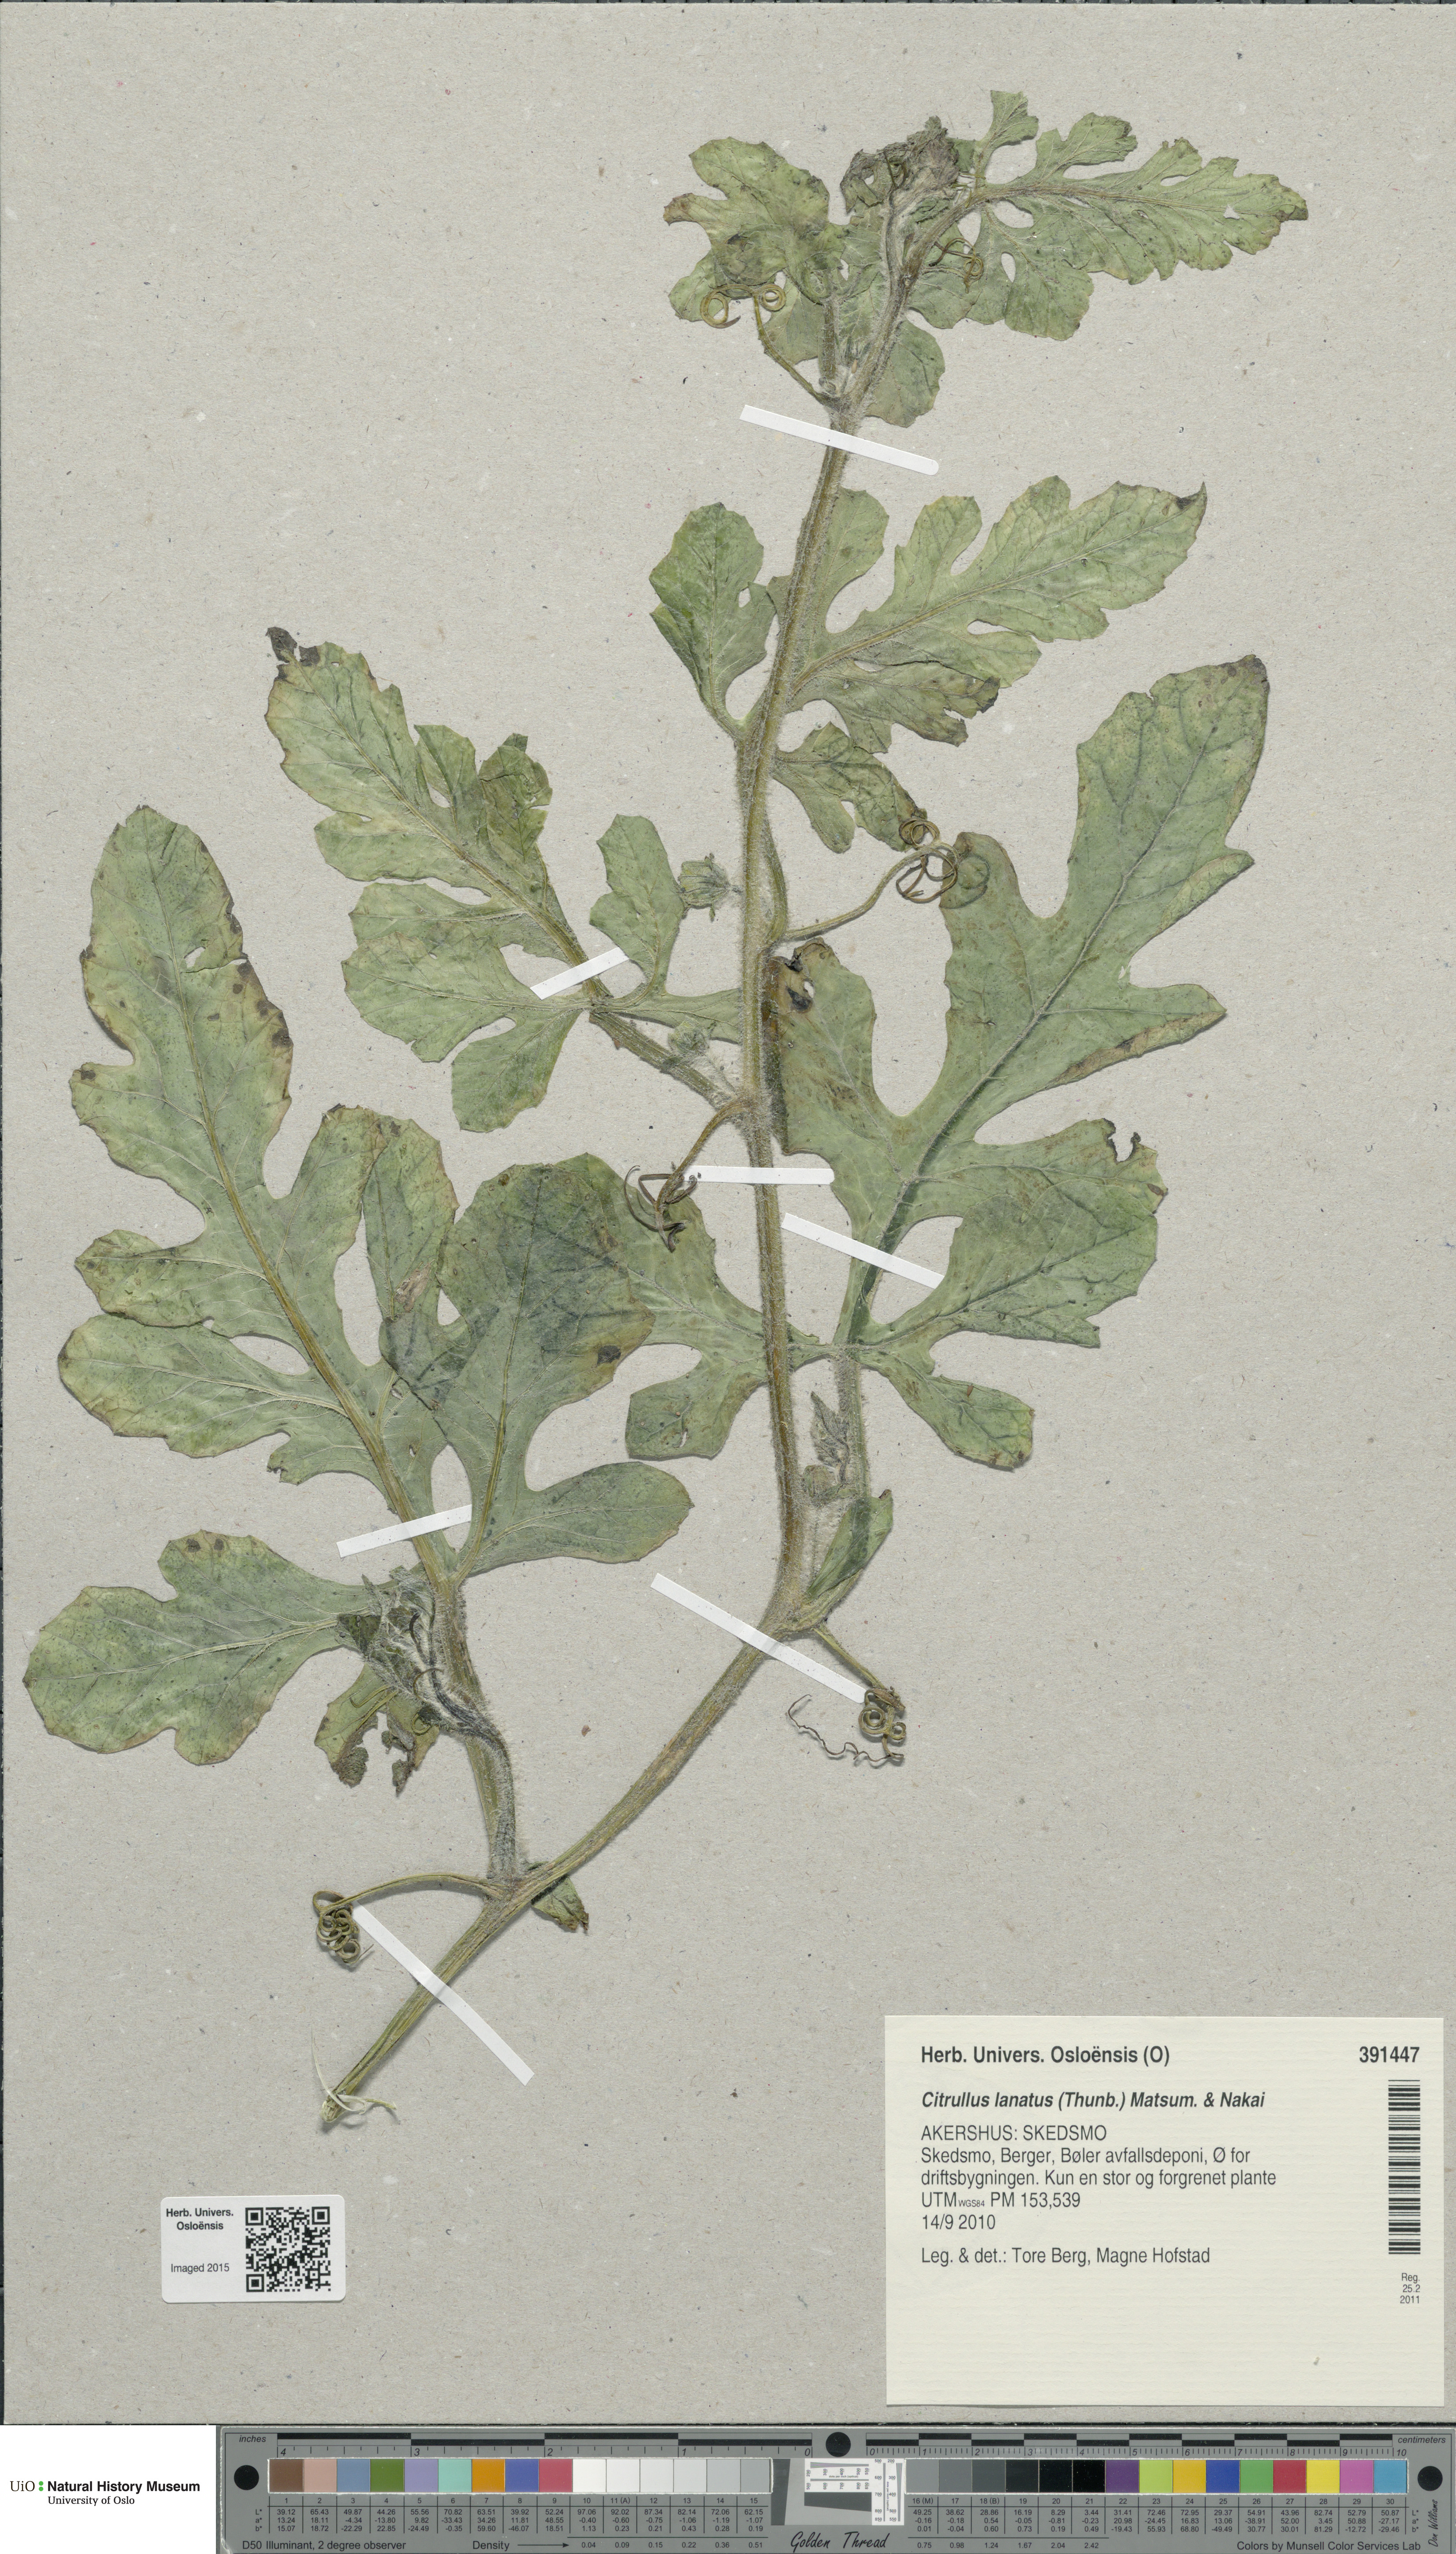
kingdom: Plantae
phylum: Tracheophyta
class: Magnoliopsida
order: Cucurbitales
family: Cucurbitaceae
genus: Citrullus
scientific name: Citrullus lanatus
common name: Watermelon
